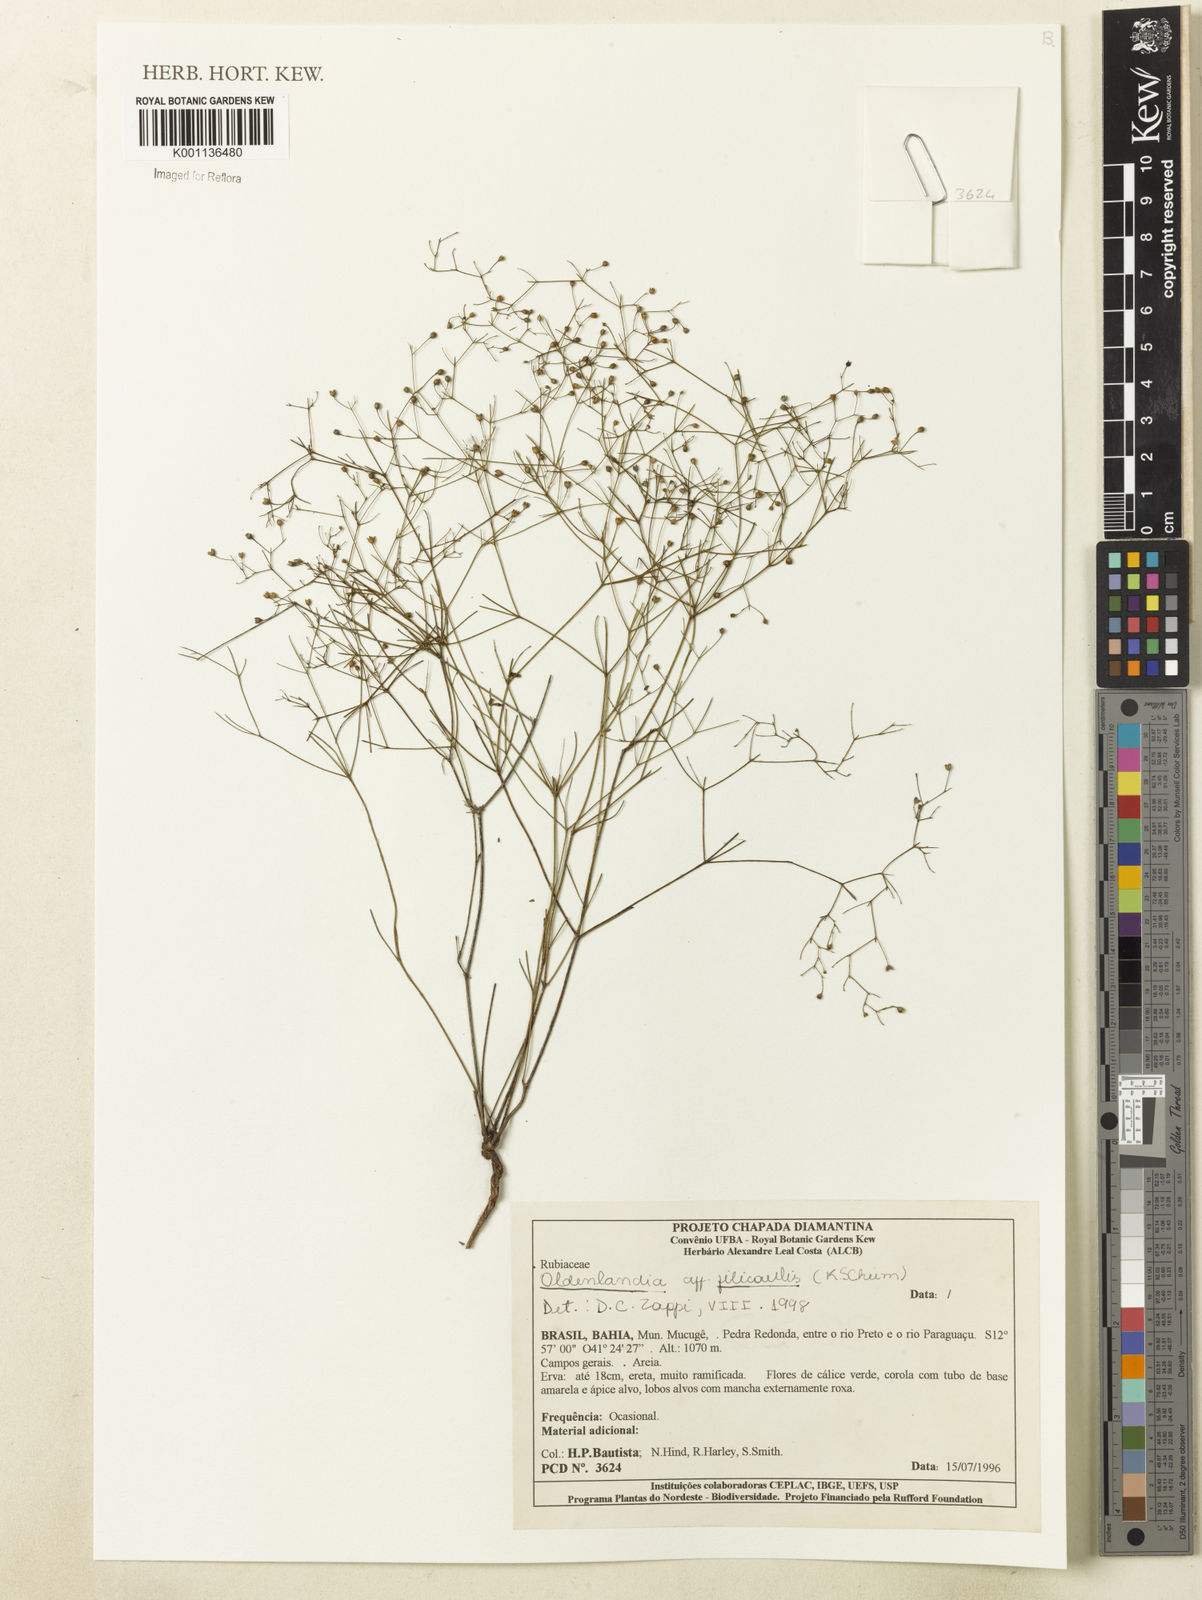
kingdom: Plantae
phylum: Tracheophyta
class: Magnoliopsida
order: Gentianales
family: Rubiaceae
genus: Oldenlandia
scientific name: Oldenlandia filicaulis
